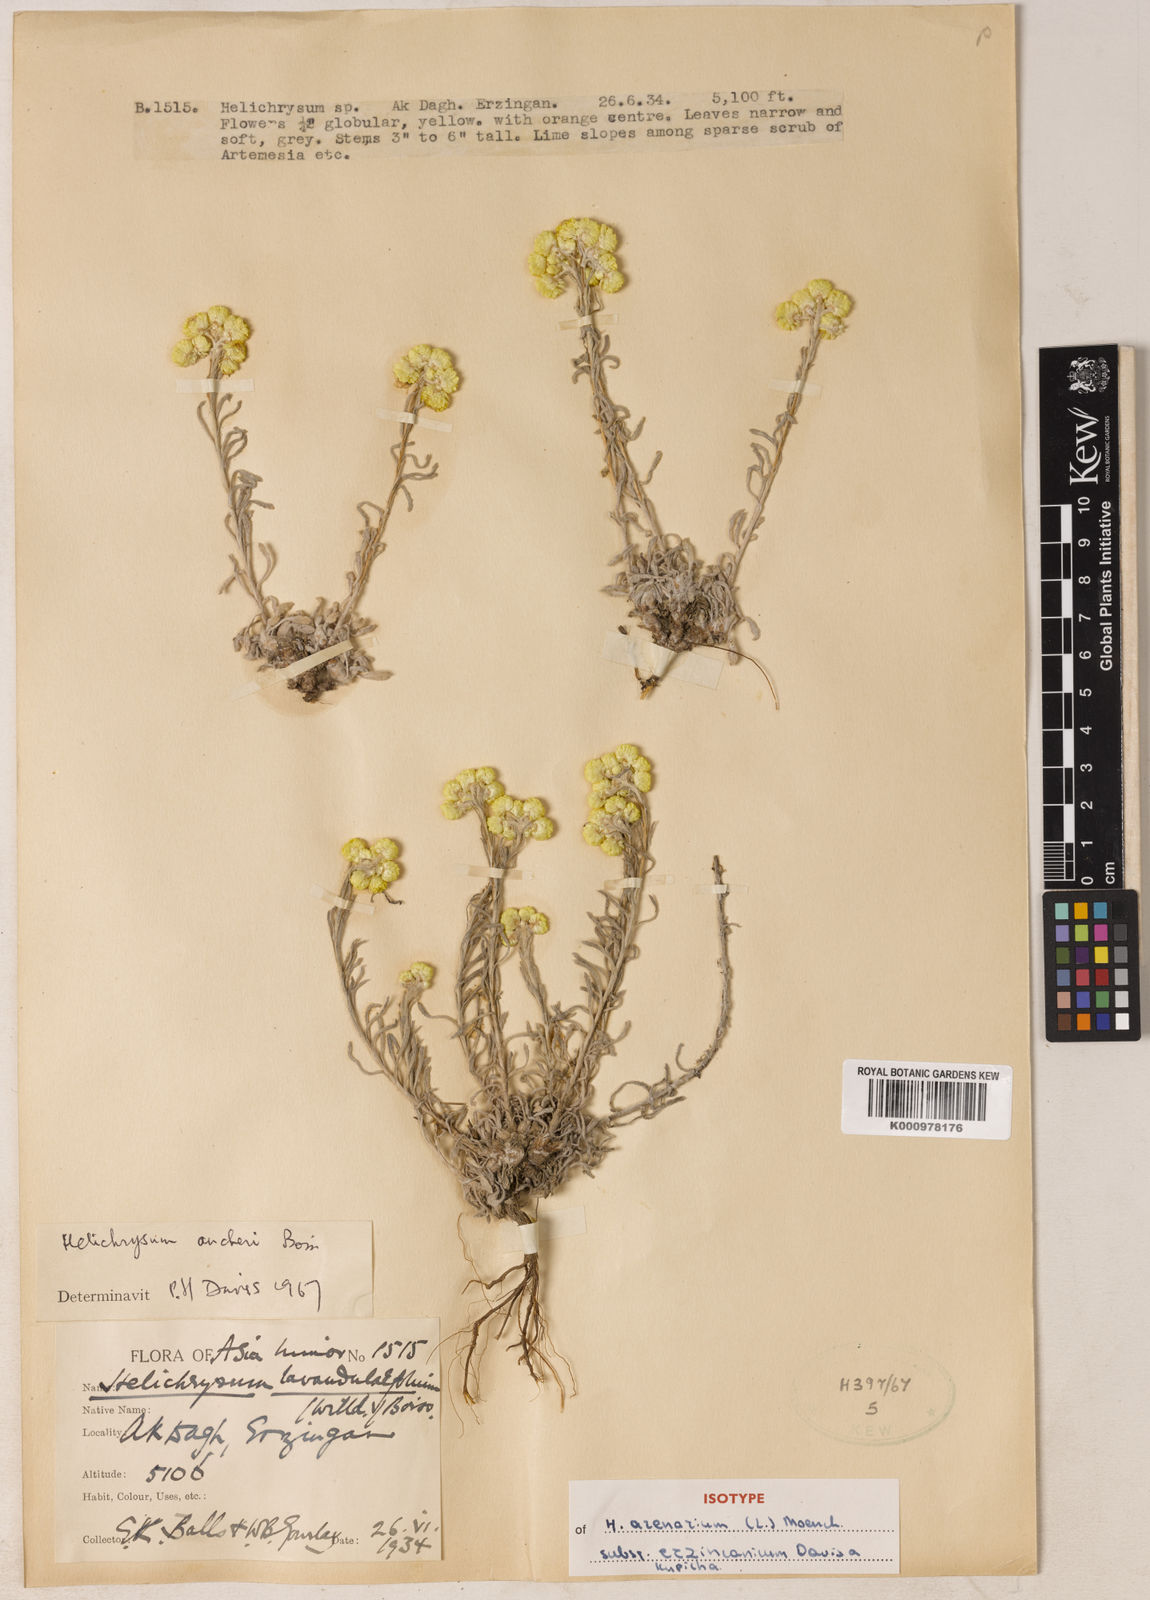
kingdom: Plantae
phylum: Tracheophyta
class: Magnoliopsida
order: Asterales
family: Asteraceae
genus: Helichrysum
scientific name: Helichrysum arenarium
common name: Strawflower
